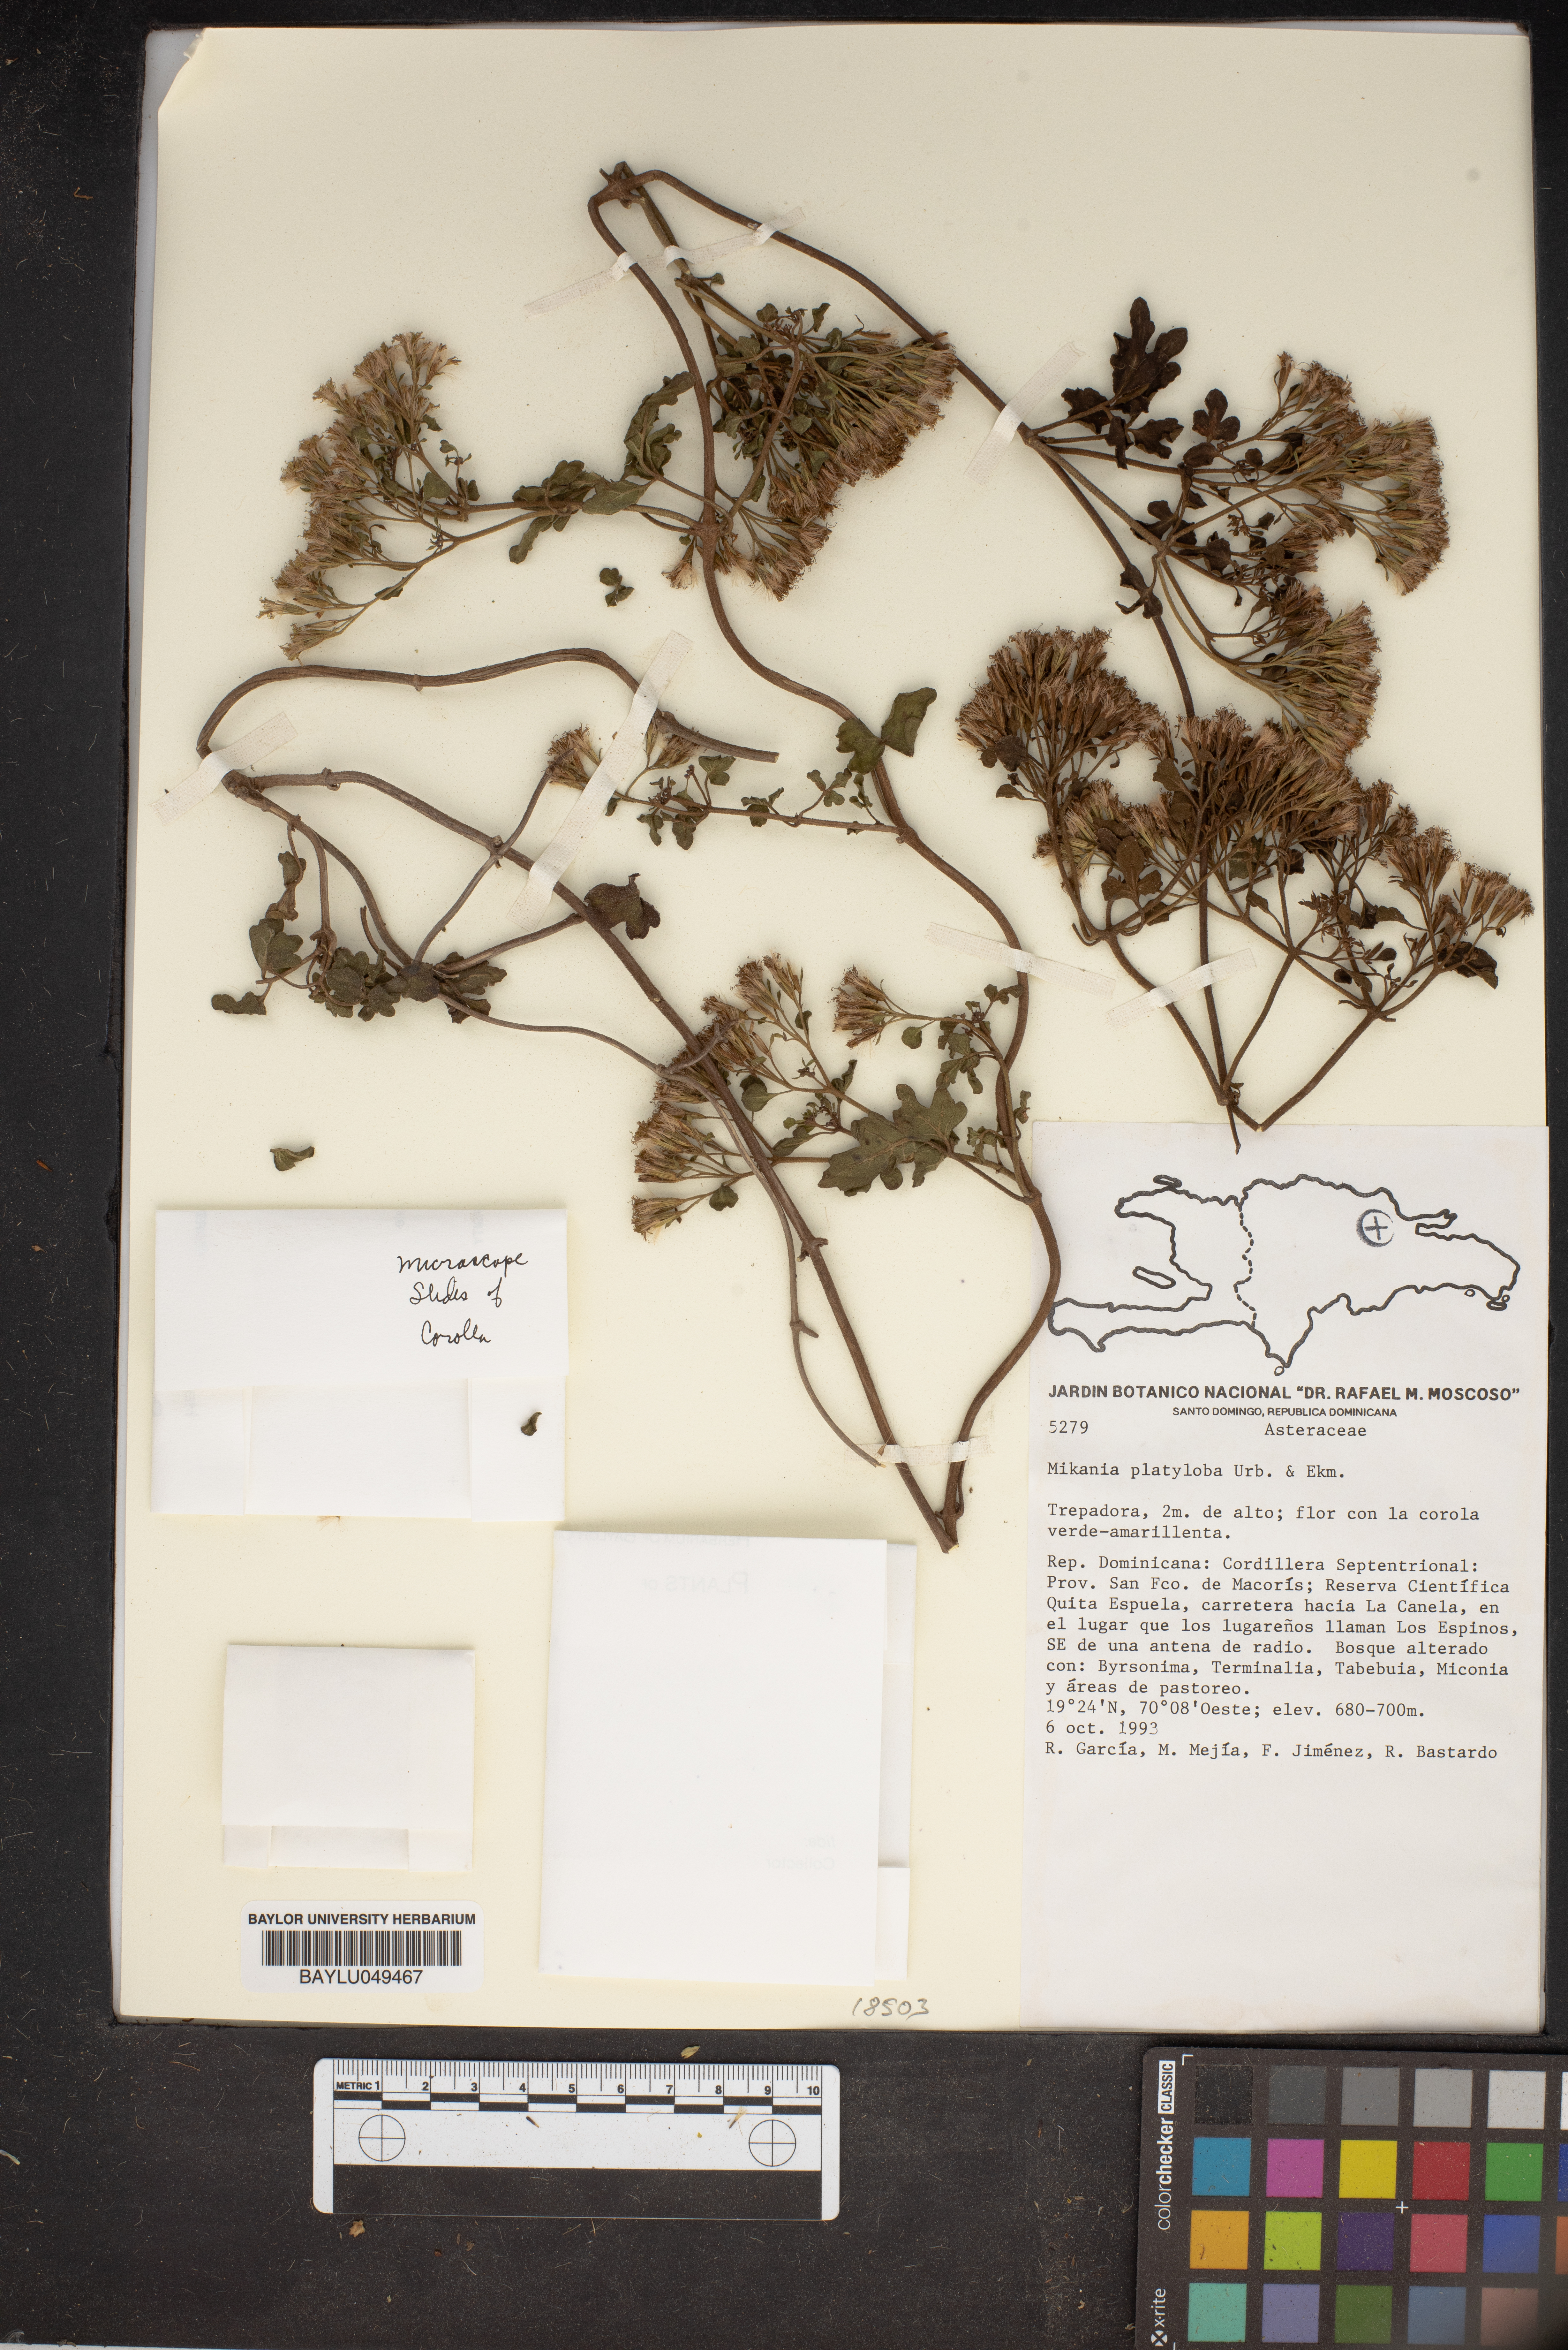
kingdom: Plantae
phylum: Tracheophyta
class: Magnoliopsida
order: Asterales
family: Asteraceae
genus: Mikania
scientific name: Mikania platyloba
